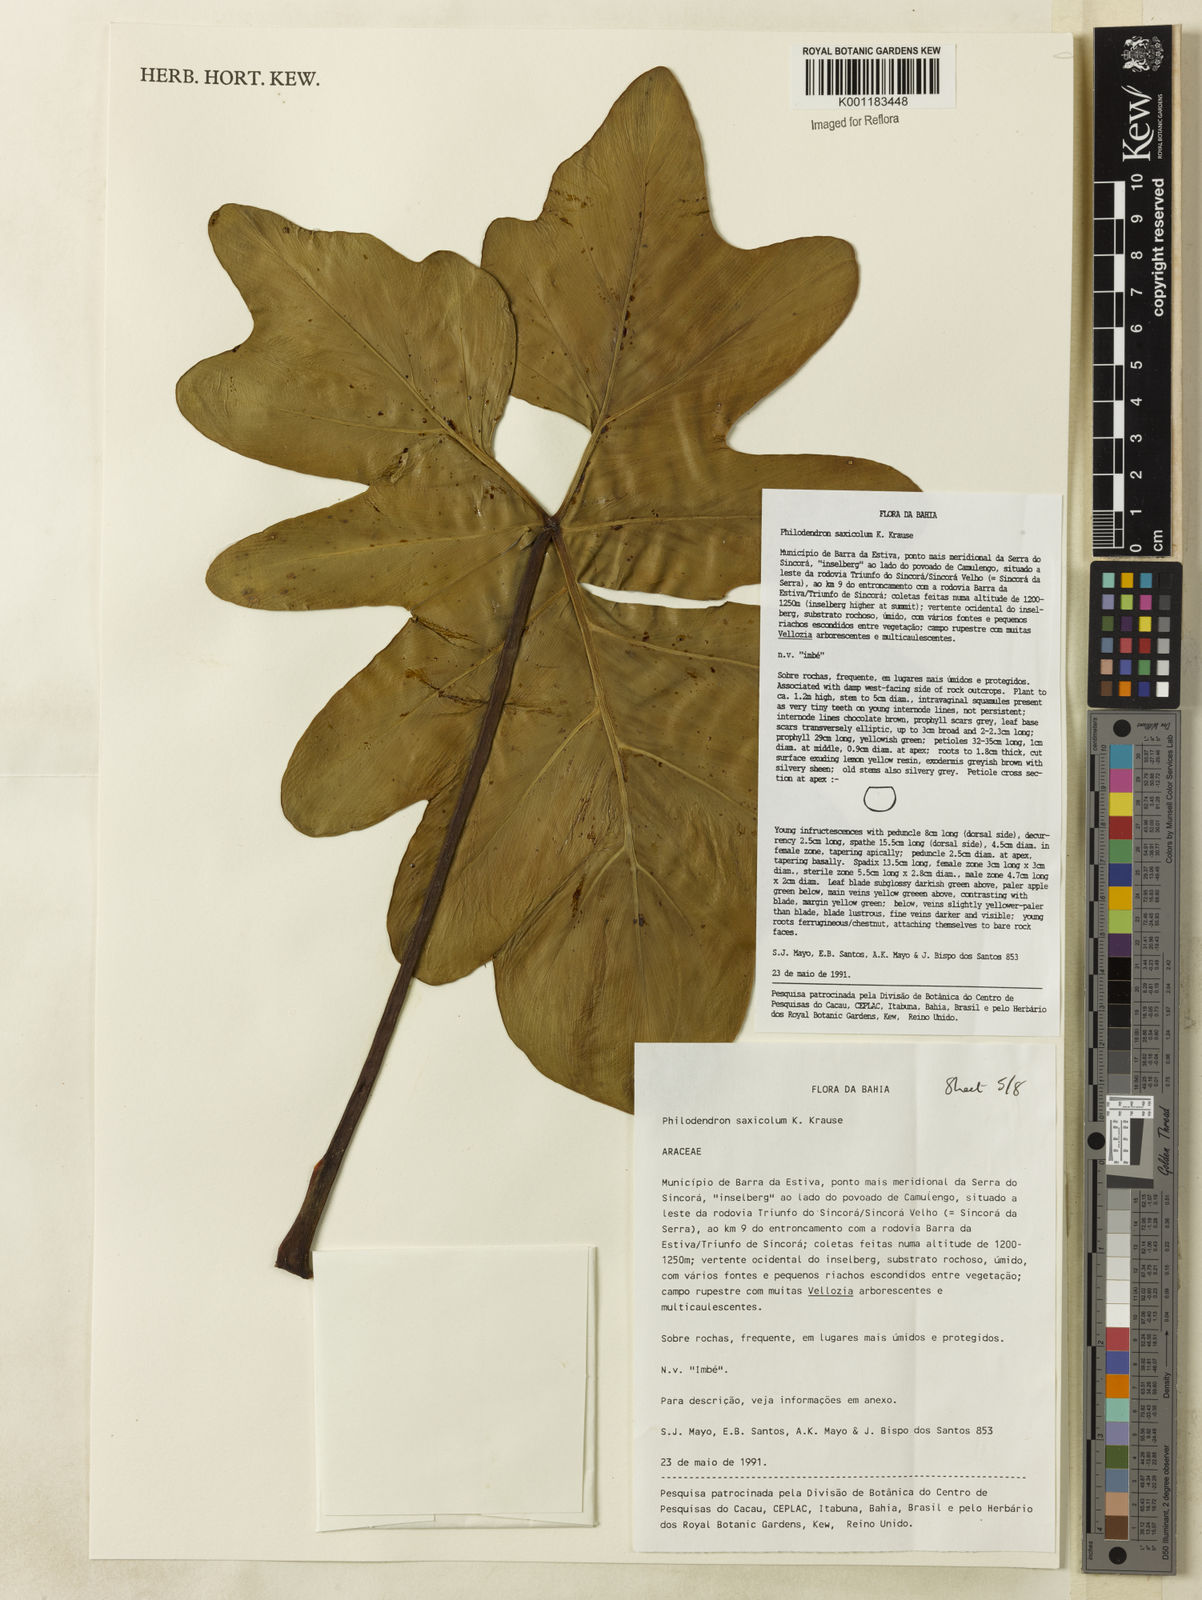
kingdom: Plantae
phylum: Tracheophyta
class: Liliopsida
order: Alismatales
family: Araceae
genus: Thaumatophyllum
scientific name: Thaumatophyllum saxicola
